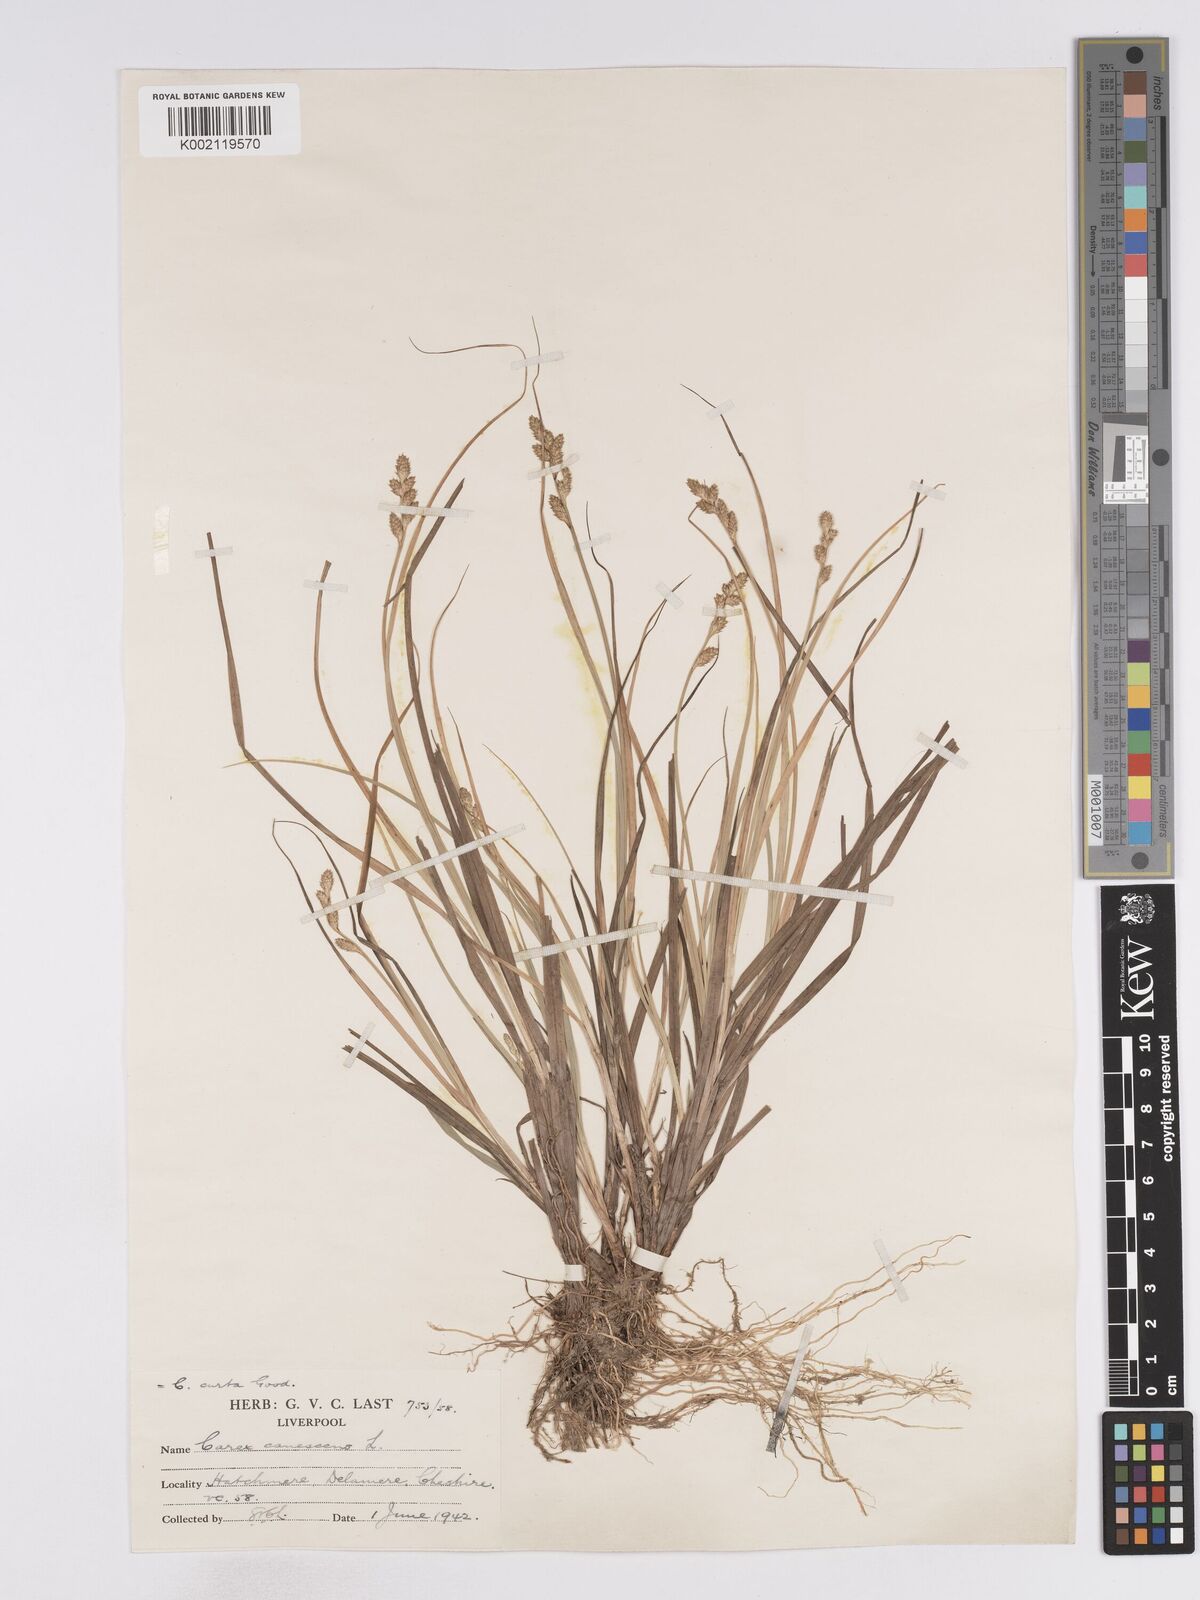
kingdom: Plantae
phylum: Tracheophyta
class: Liliopsida
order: Poales
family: Cyperaceae
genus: Carex
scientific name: Carex curta
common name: White sedge
